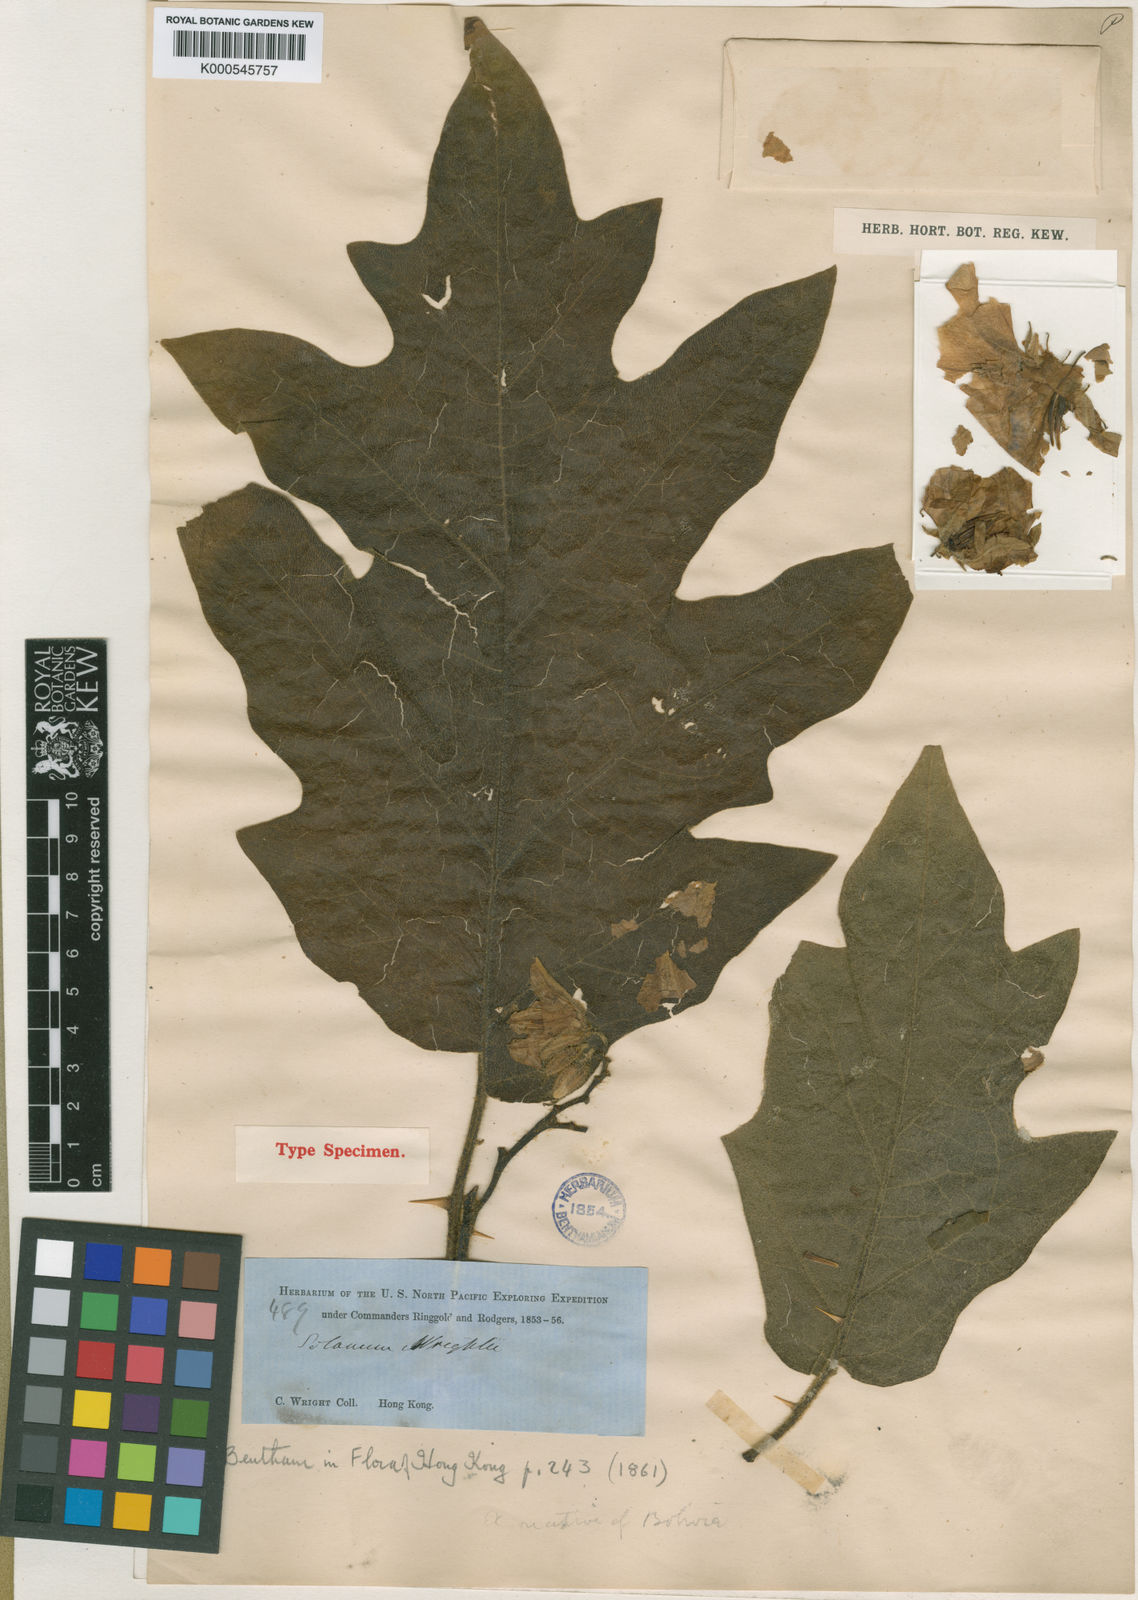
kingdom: Plantae
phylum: Tracheophyta
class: Magnoliopsida
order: Solanales
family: Solanaceae
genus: Solanum
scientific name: Solanum wrightii
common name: Brazilian potato-tree
